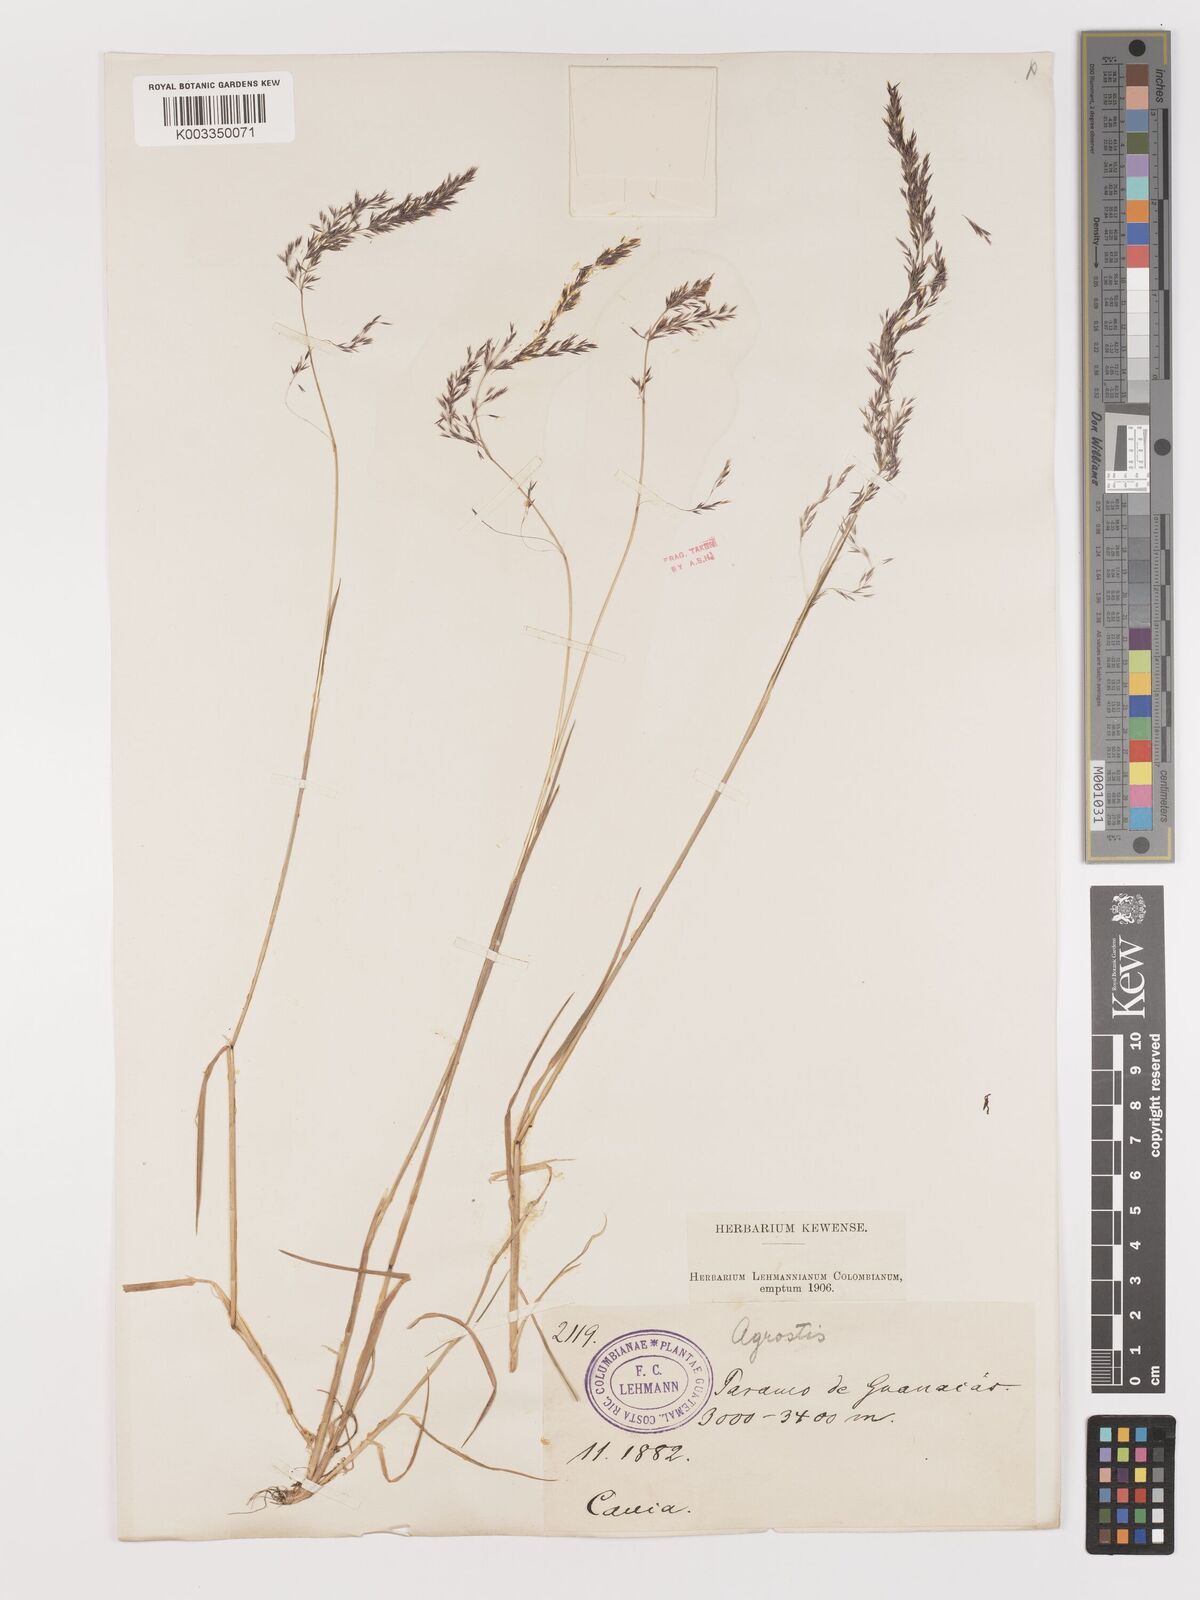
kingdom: Plantae
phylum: Tracheophyta
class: Liliopsida
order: Poales
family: Poaceae
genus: Agrostis
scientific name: Agrostis
